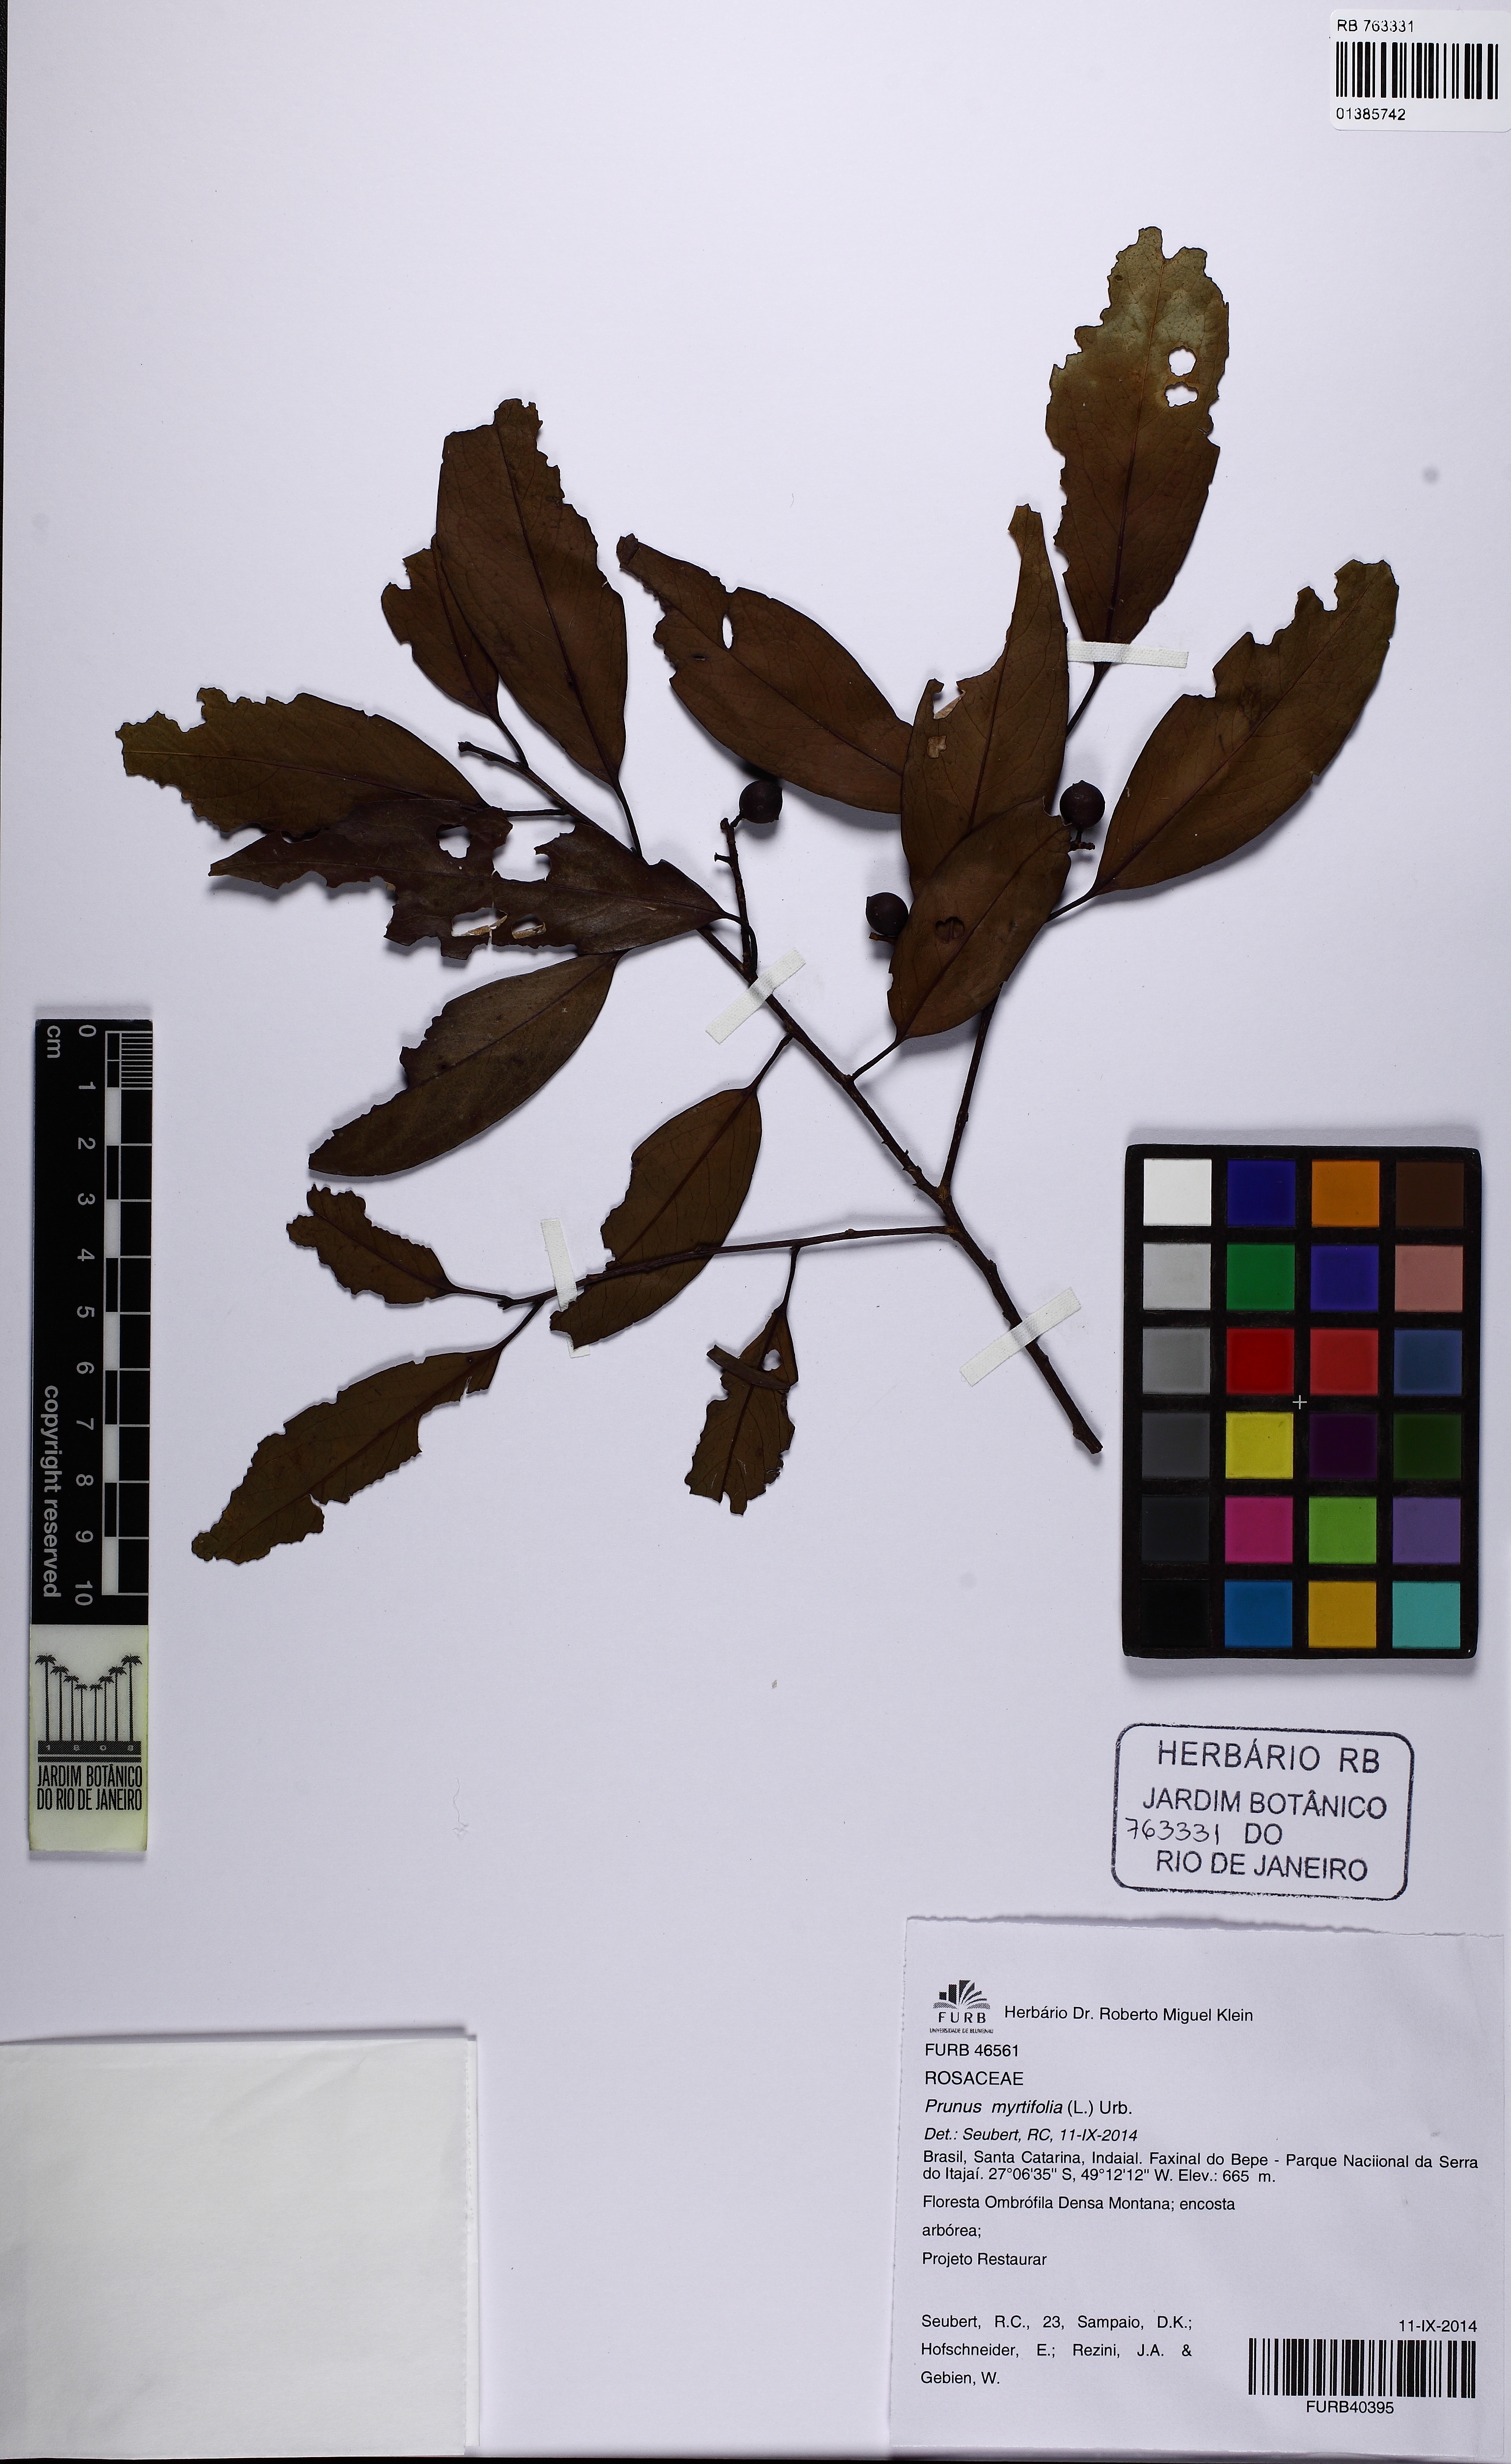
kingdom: Plantae
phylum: Tracheophyta
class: Magnoliopsida
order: Rosales
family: Rosaceae
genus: Prunus
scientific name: Prunus myrtifolia
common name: West indies cherry
